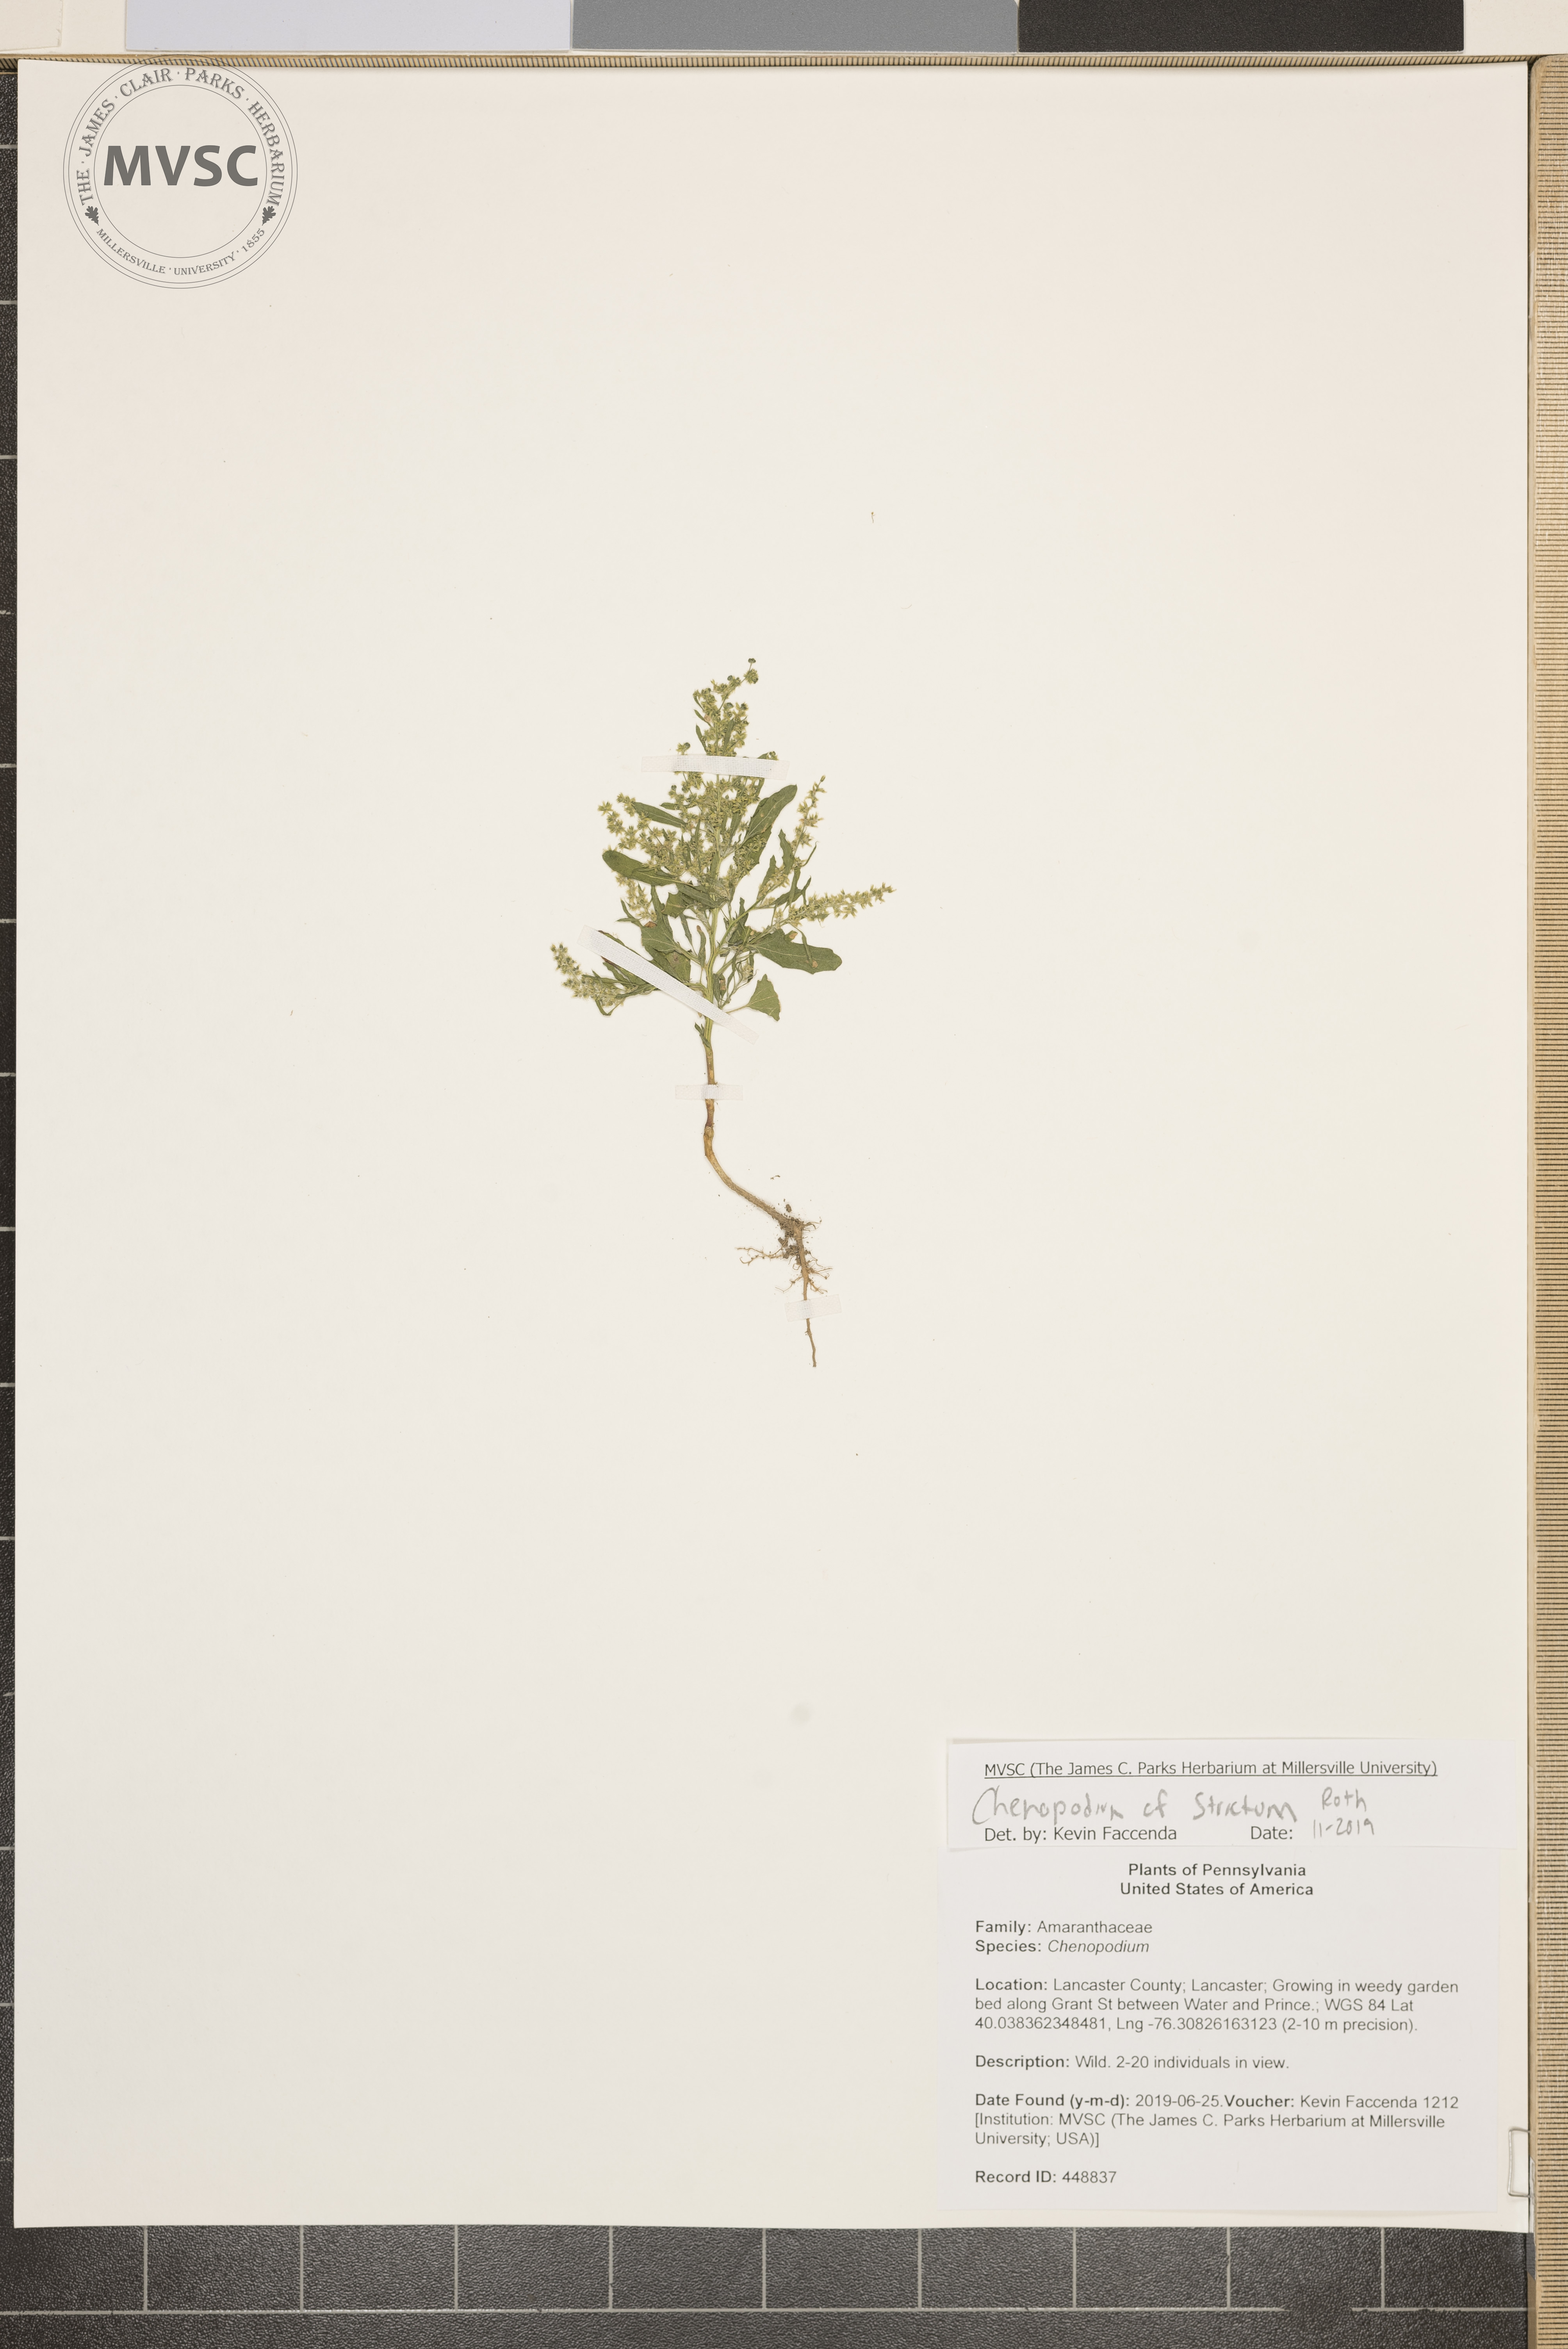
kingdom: Plantae
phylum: Tracheophyta
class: Magnoliopsida
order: Caryophyllales
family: Amaranthaceae
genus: Chenopodium
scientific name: Chenopodium album
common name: Fat-hen
